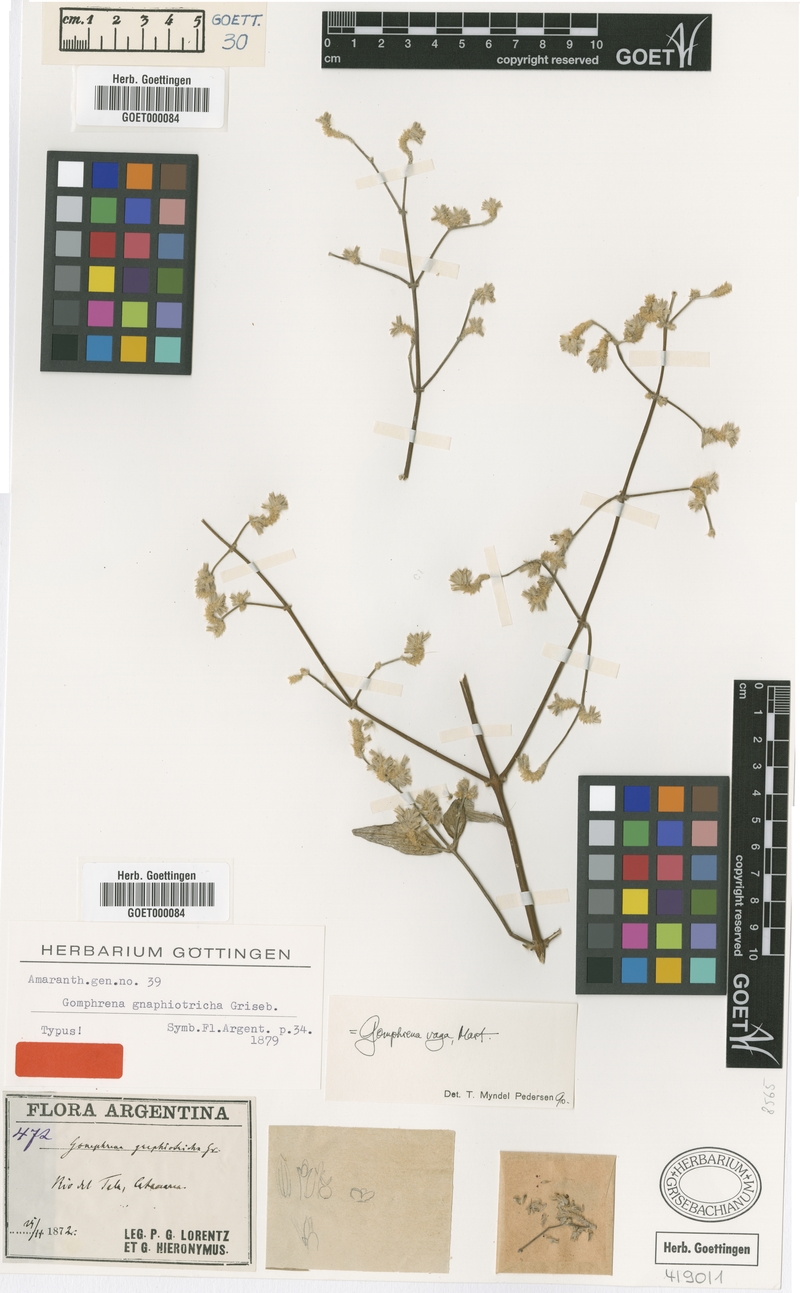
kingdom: Plantae
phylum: Tracheophyta
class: Magnoliopsida
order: Caryophyllales
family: Amaranthaceae
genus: Gomphrena
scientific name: Gomphrena vaga
